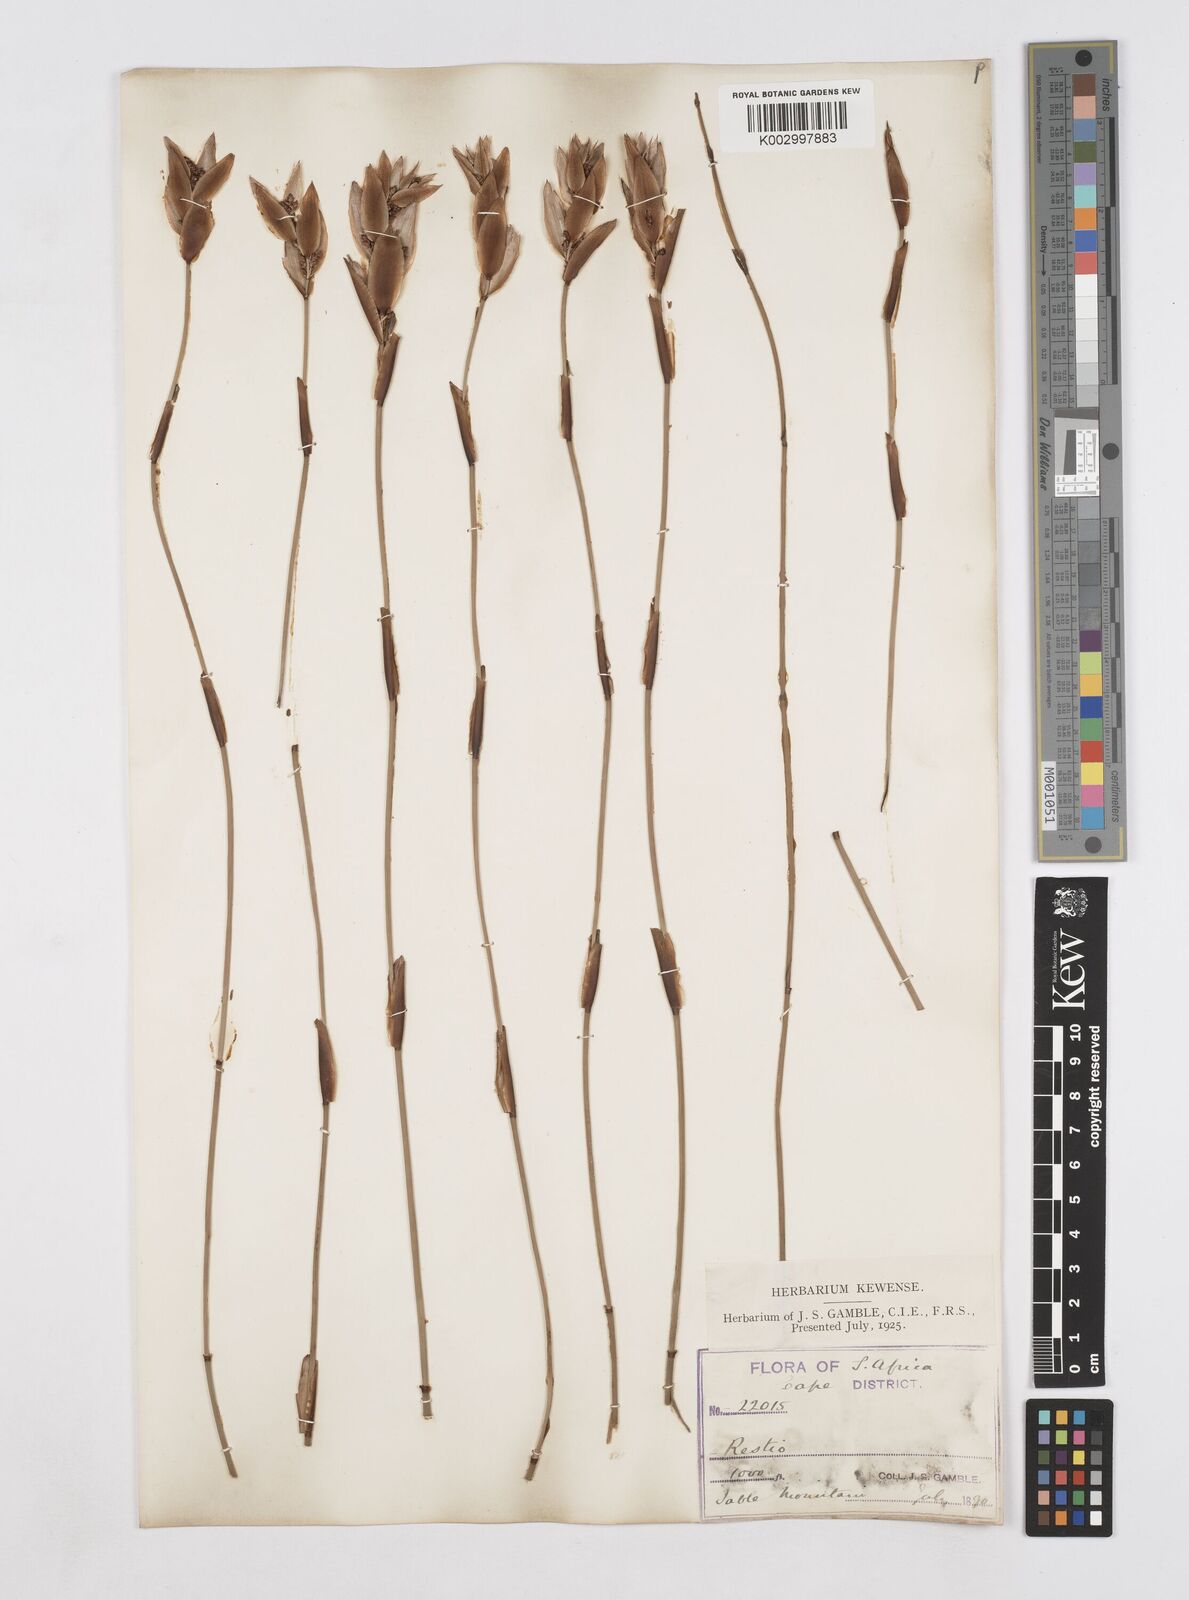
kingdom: Plantae
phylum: Tracheophyta
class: Liliopsida
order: Poales
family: Restionaceae
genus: Elegia
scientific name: Elegia racemosa
